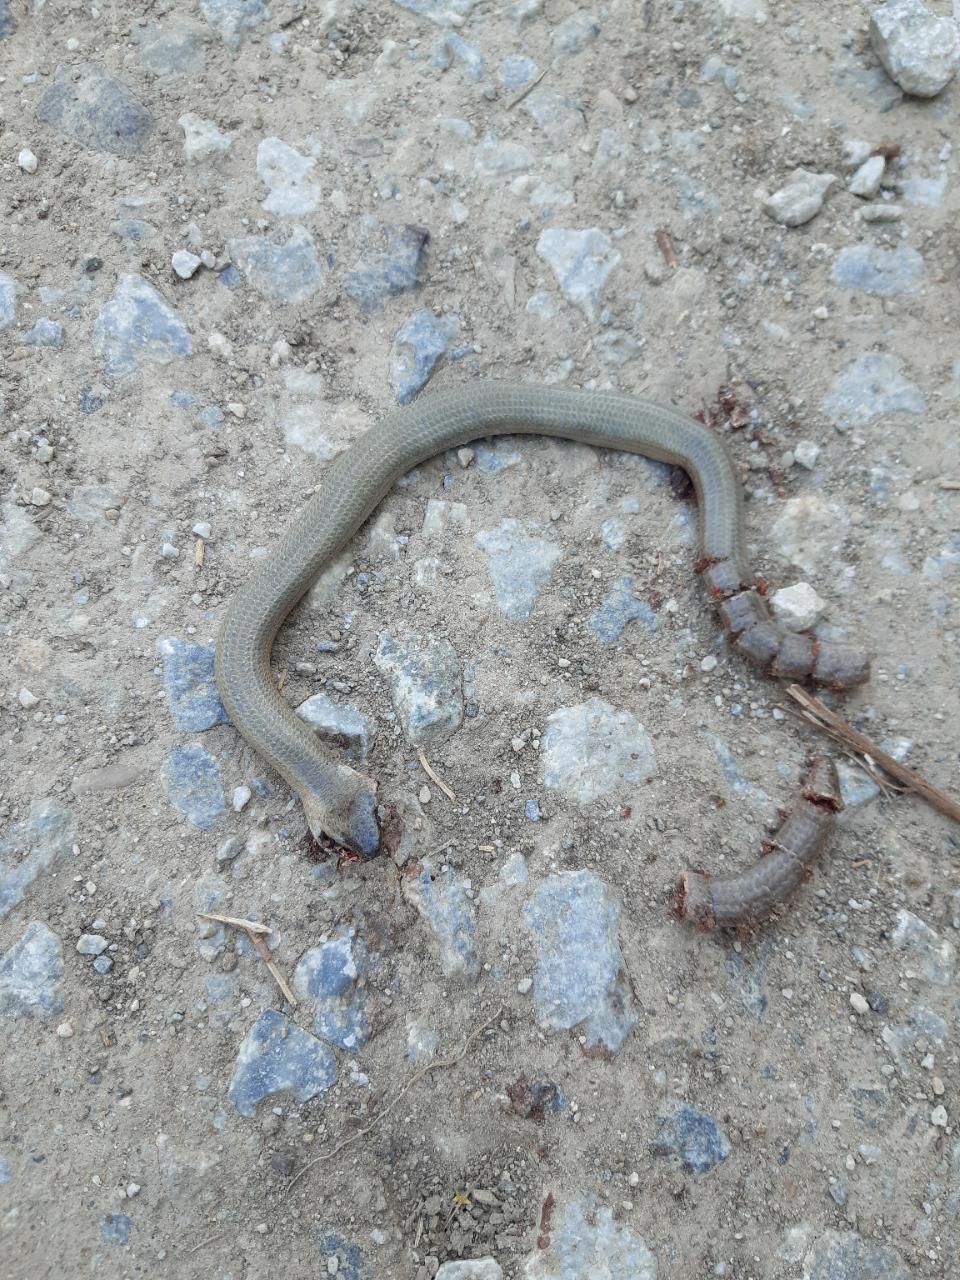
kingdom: Animalia
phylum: Chordata
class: Squamata
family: Anguidae
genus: Anguis
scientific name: Anguis fragilis
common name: Slow worm
